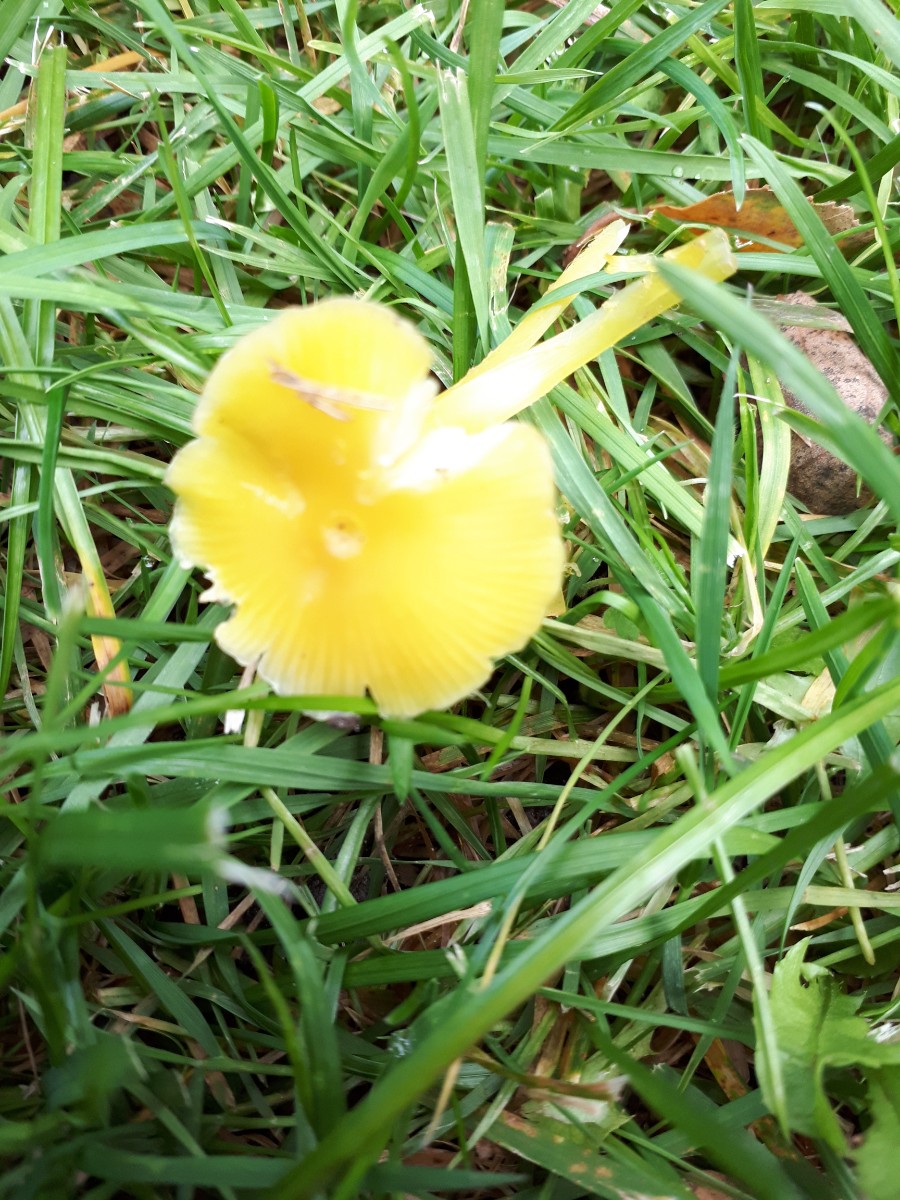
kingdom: Fungi
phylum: Basidiomycota
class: Agaricomycetes
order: Agaricales
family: Hygrophoraceae
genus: Hygrocybe
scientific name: Hygrocybe chlorophana
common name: gul vokshat
